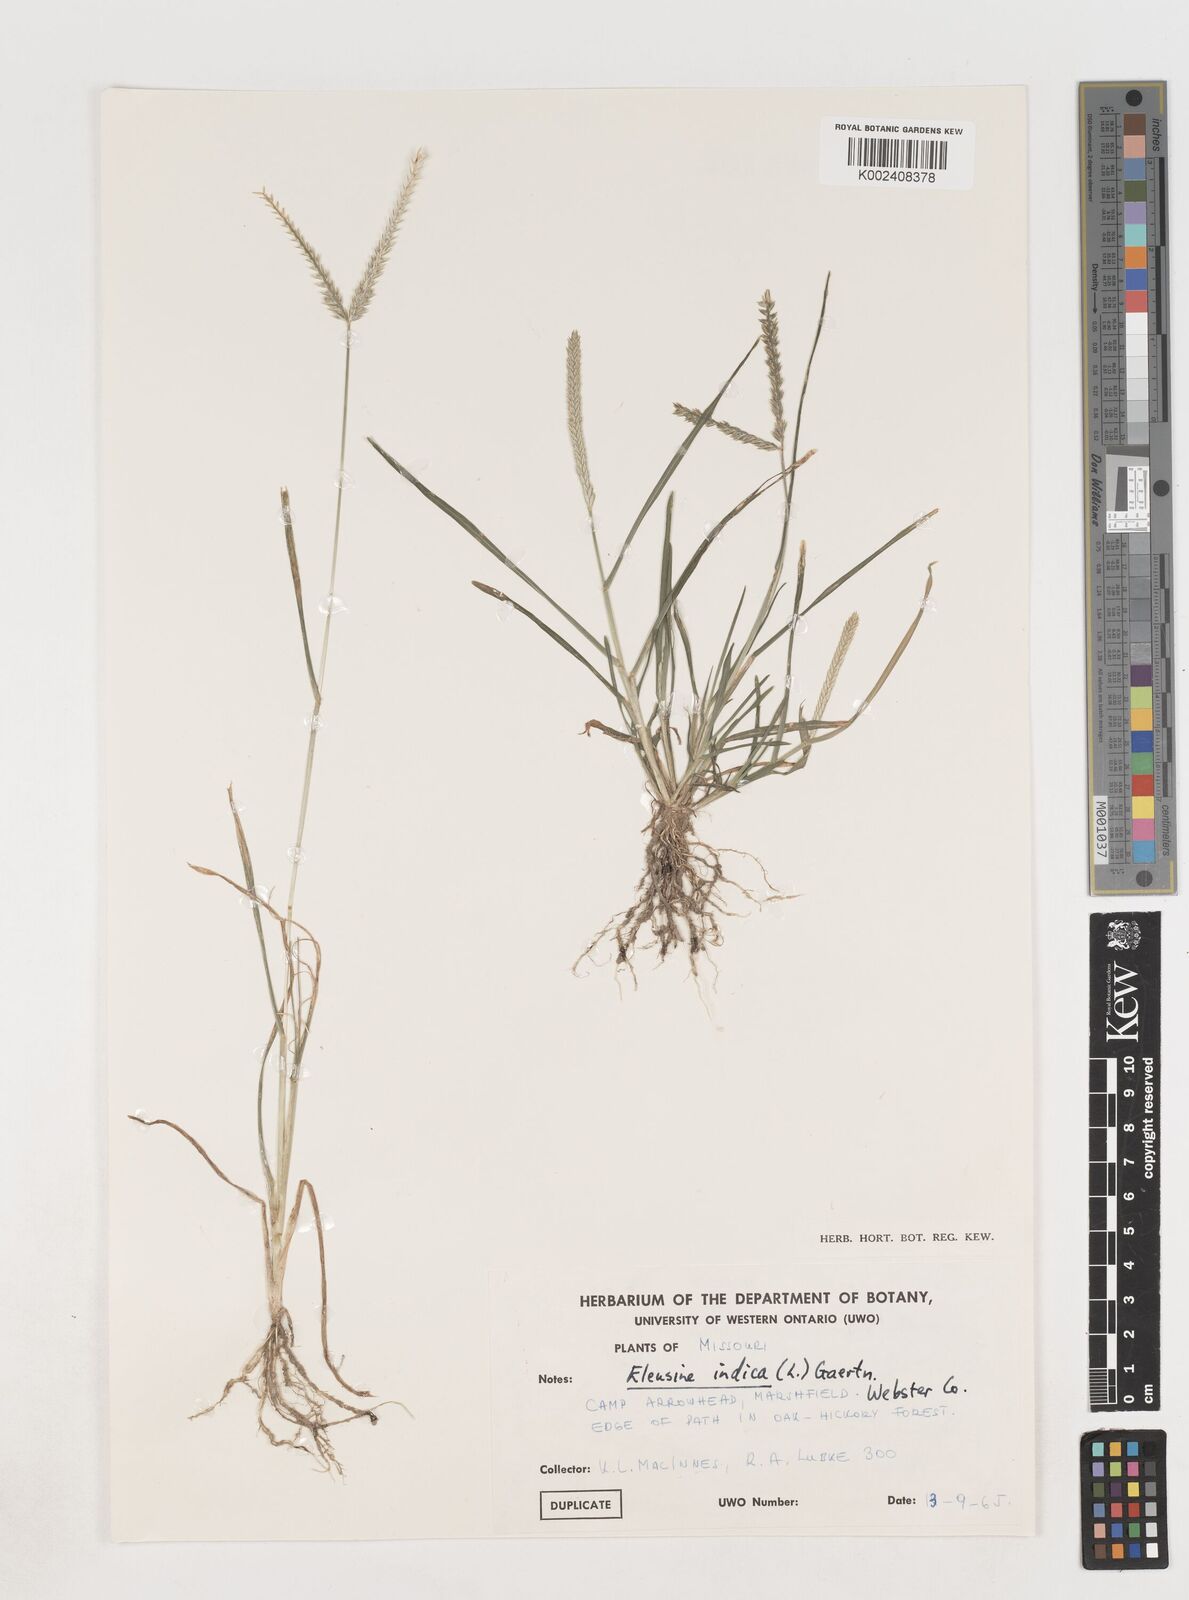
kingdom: Plantae
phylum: Tracheophyta
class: Liliopsida
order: Poales
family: Poaceae
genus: Eleusine
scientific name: Eleusine indica
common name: Yard-grass
